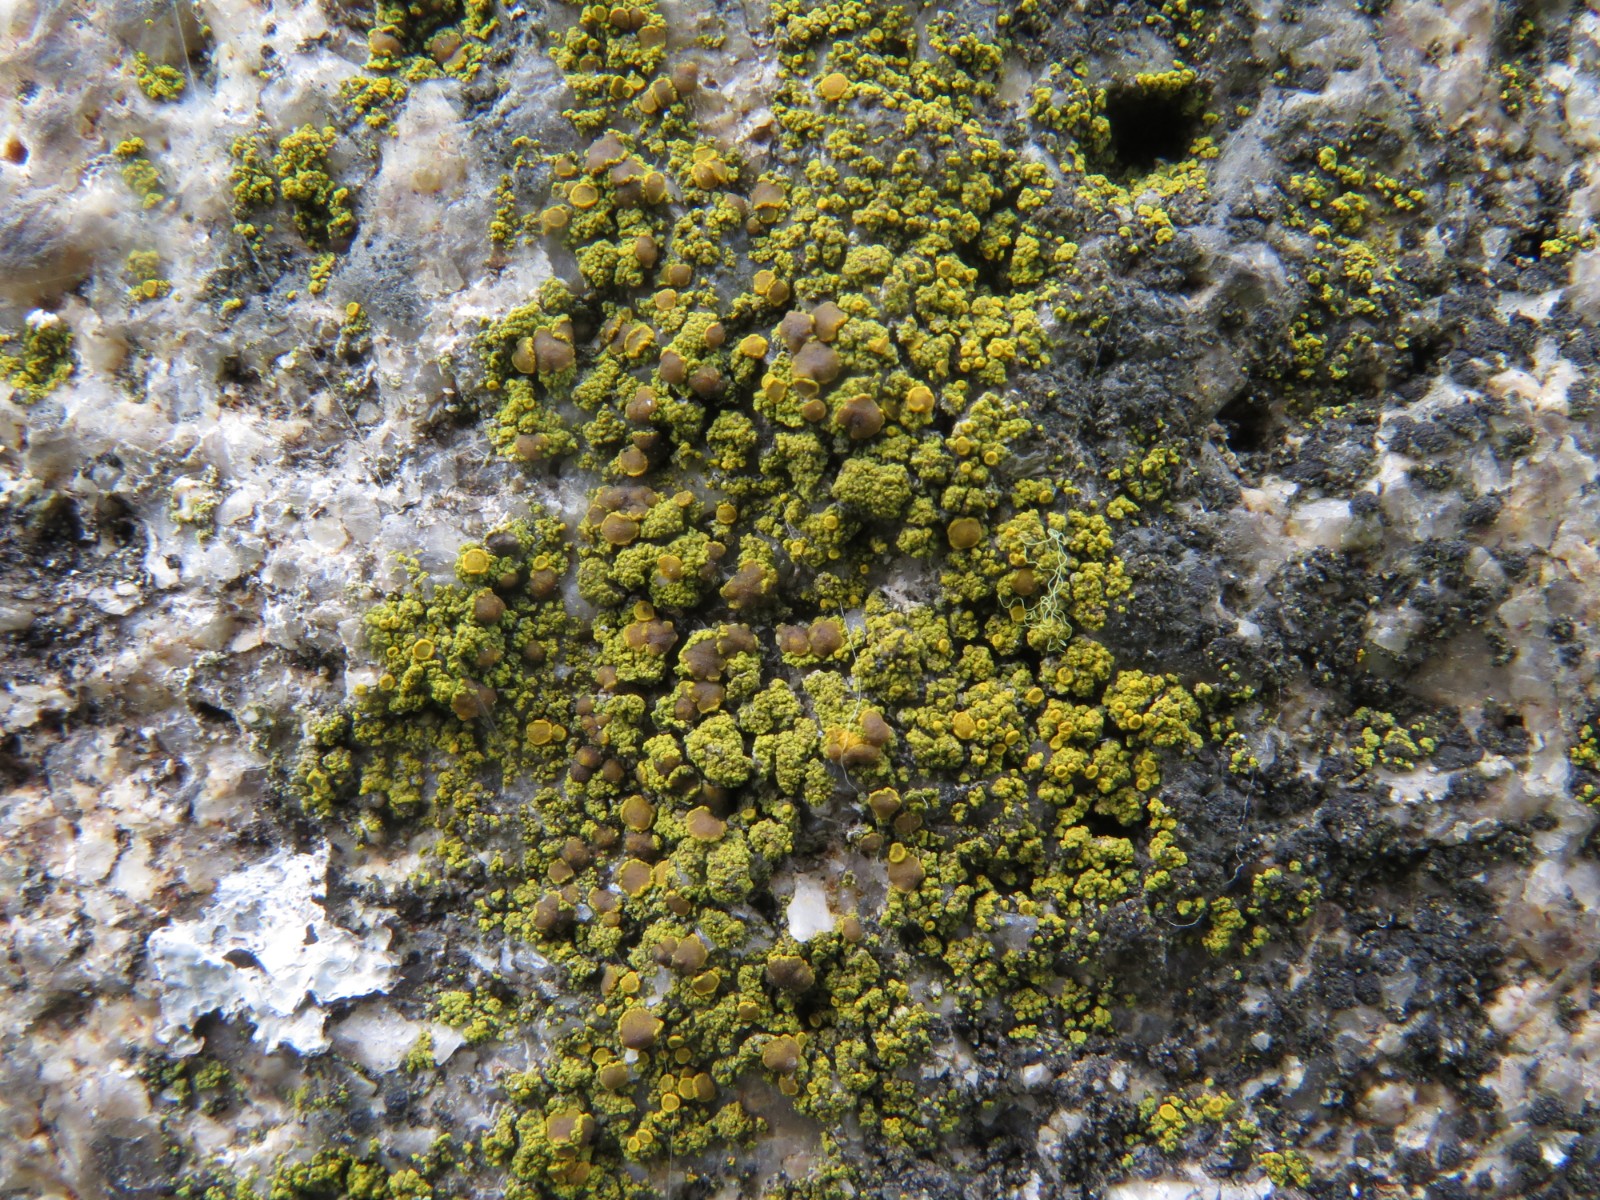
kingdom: Fungi
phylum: Ascomycota
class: Candelariomycetes
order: Candelariales
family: Candelariaceae
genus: Candelariella
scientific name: Candelariella vitellina
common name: almindelig æggeblommelav
